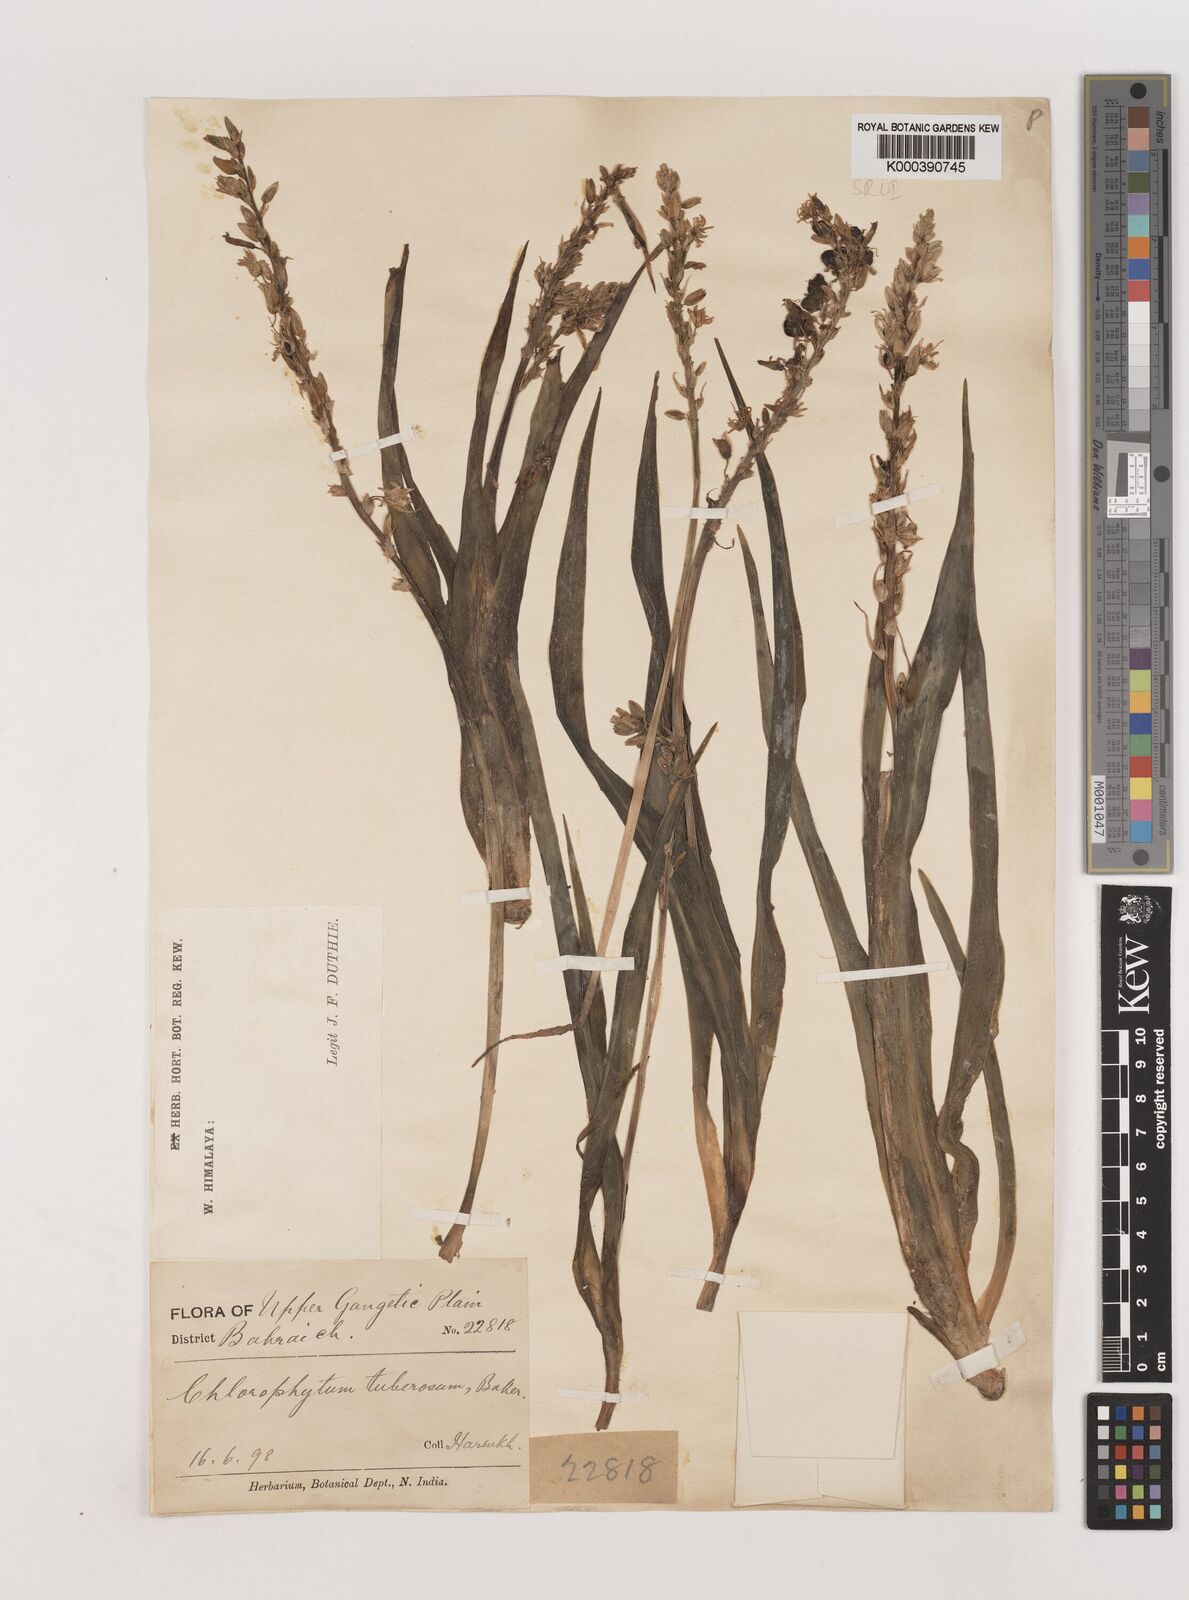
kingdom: Plantae
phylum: Tracheophyta
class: Liliopsida
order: Asparagales
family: Asparagaceae
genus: Chlorophytum
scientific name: Chlorophytum tuberosum
